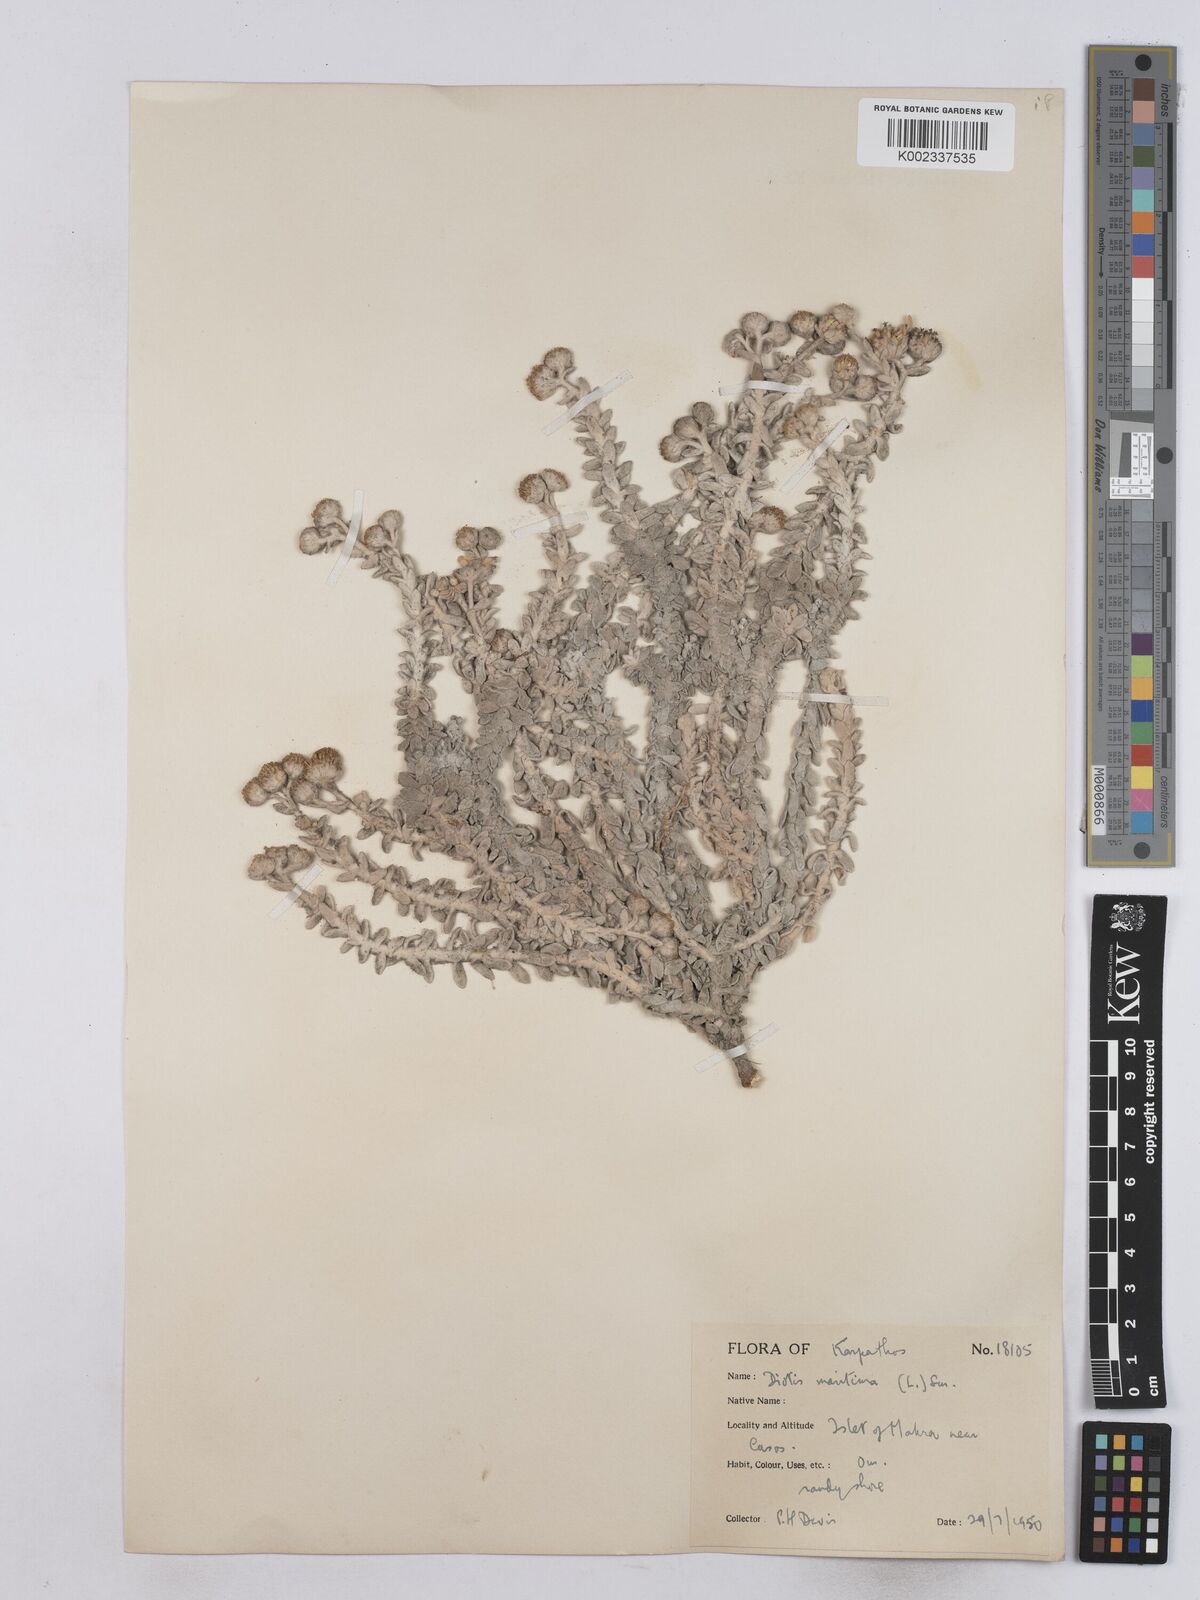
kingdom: Plantae
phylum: Tracheophyta
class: Magnoliopsida
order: Asterales
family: Asteraceae
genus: Achillea
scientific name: Achillea maritima
